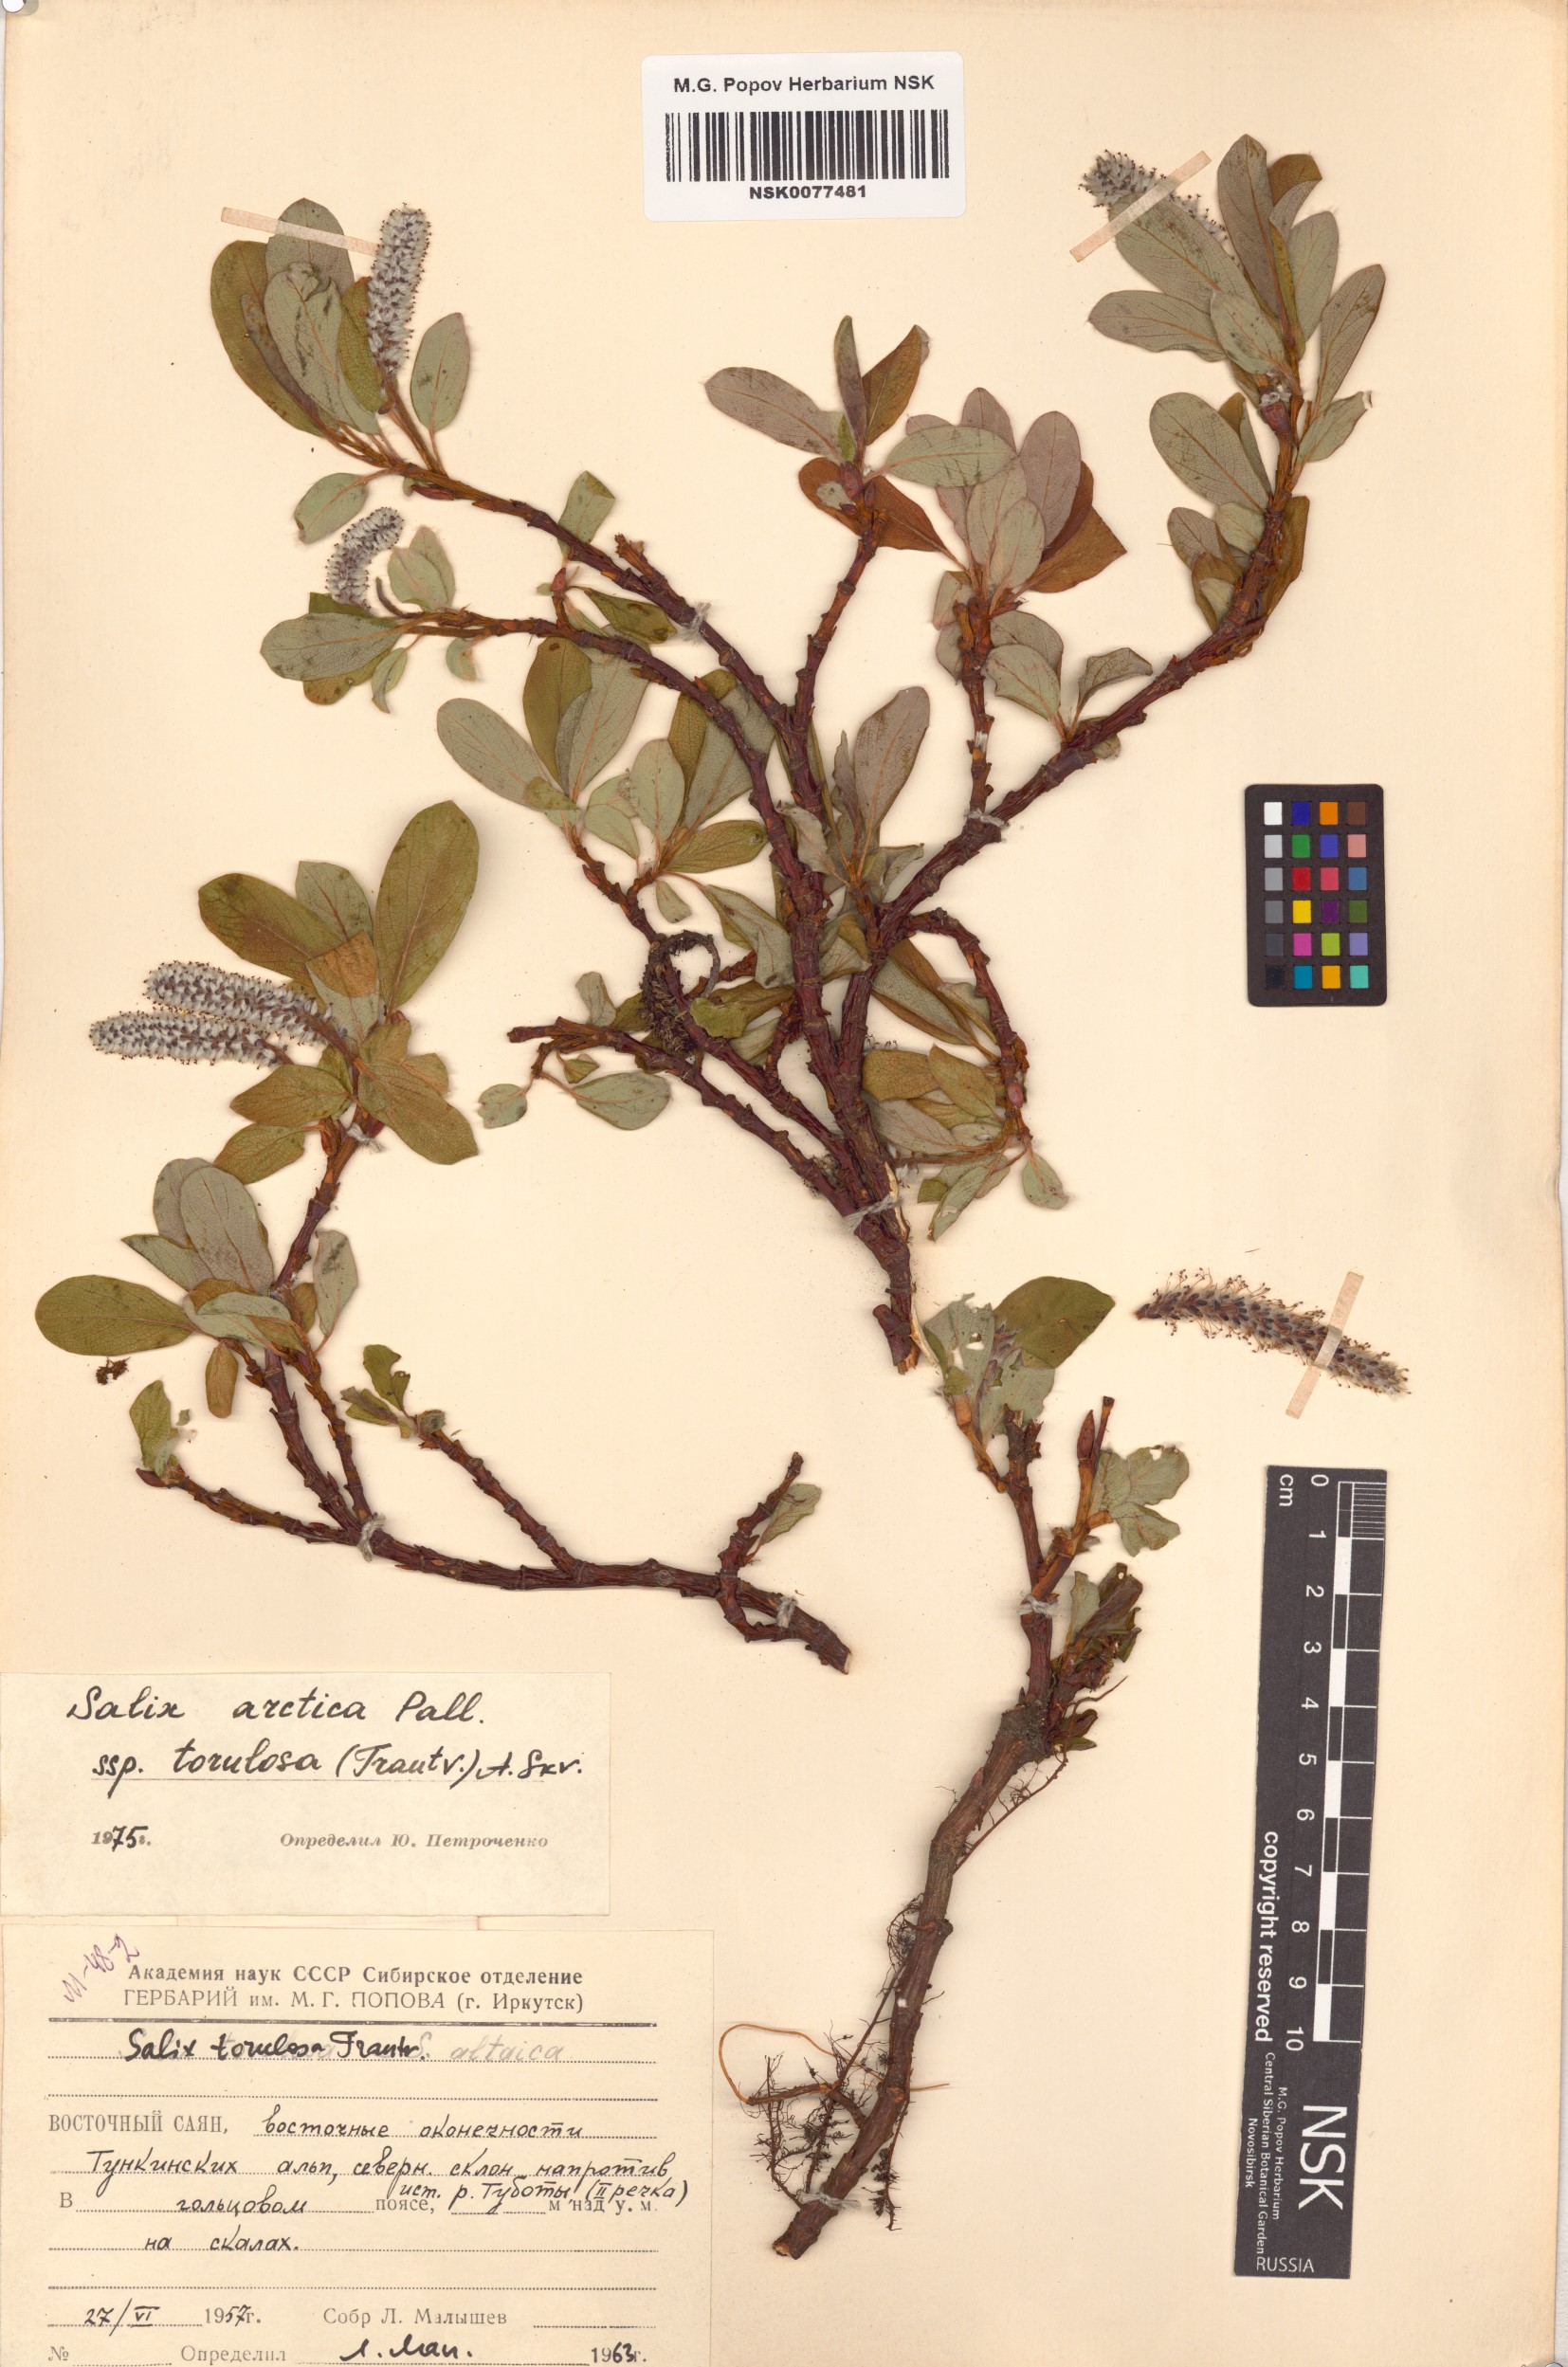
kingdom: Plantae
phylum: Tracheophyta
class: Magnoliopsida
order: Malpighiales
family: Salicaceae
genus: Salix
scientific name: Salix arctica
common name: Arctic willow
